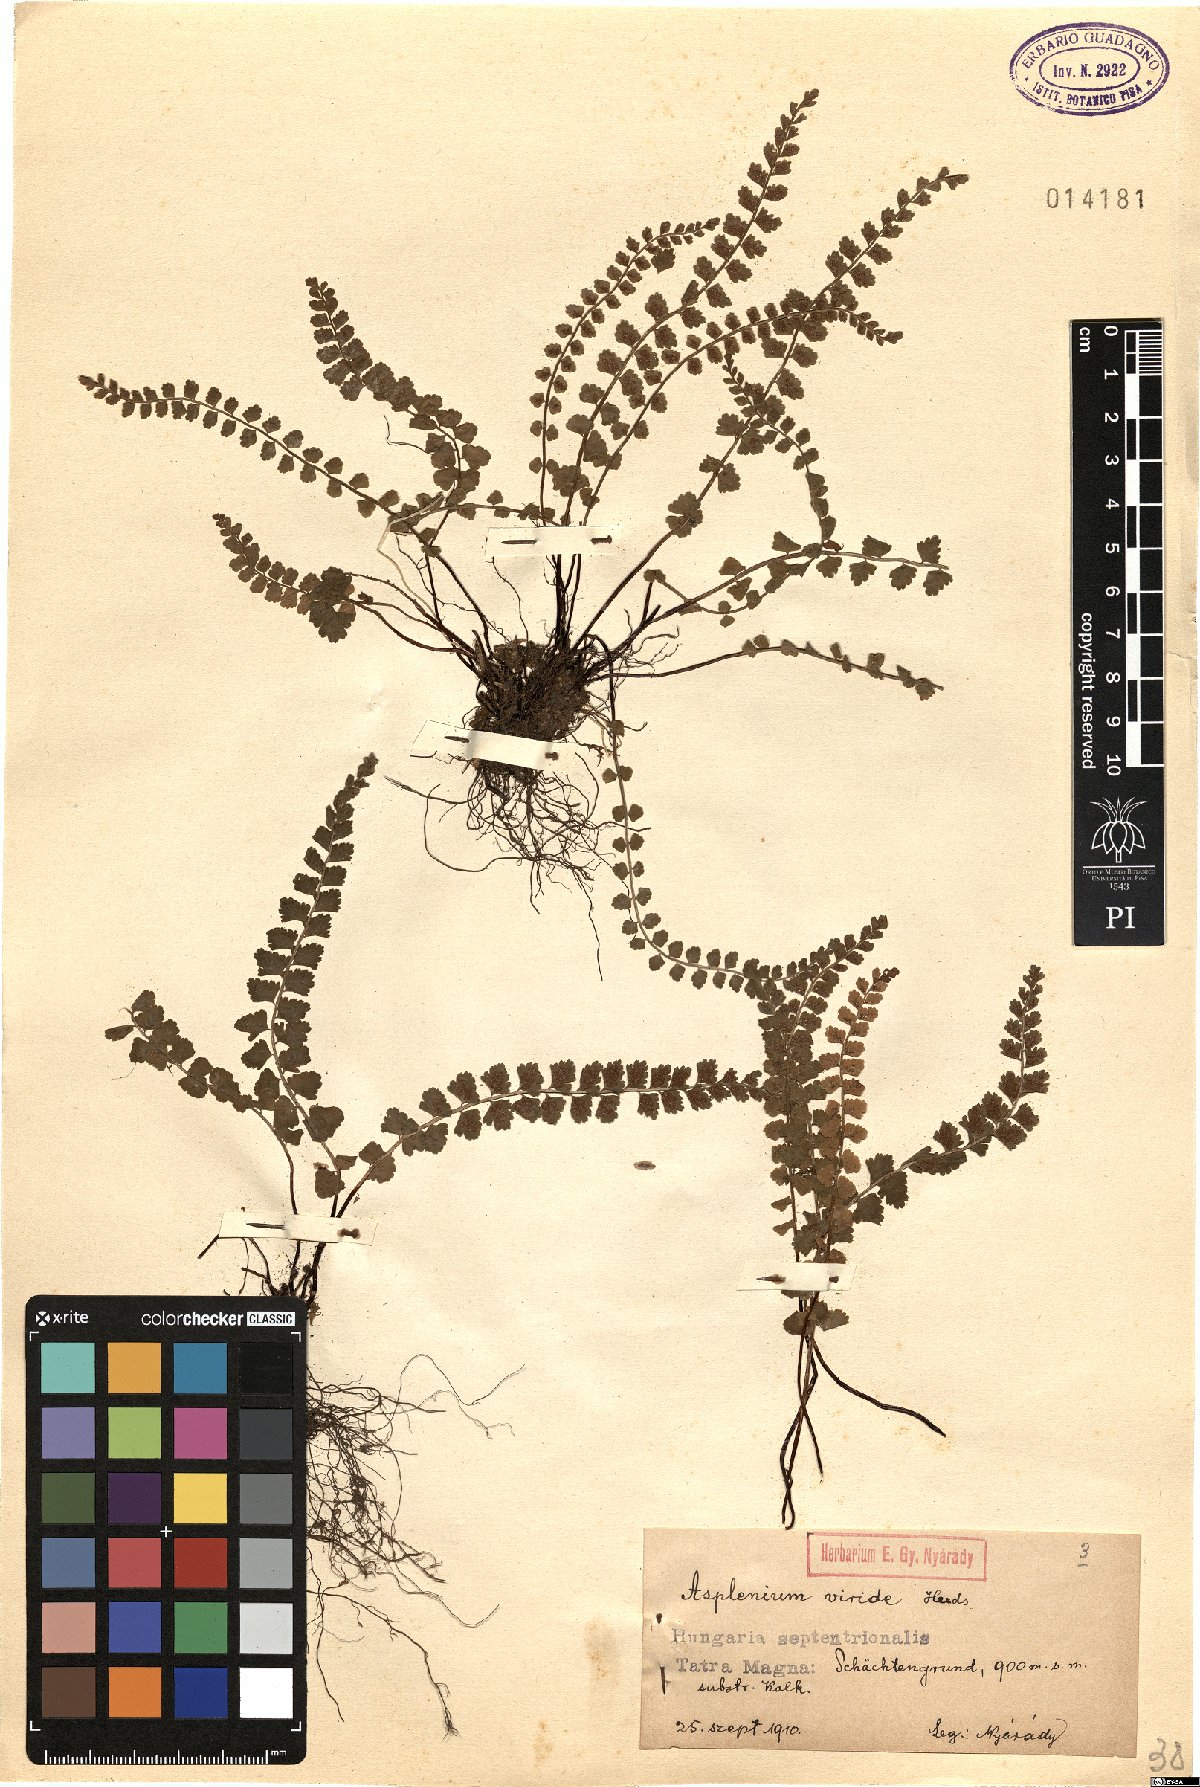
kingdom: Plantae
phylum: Tracheophyta
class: Polypodiopsida
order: Polypodiales
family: Aspleniaceae
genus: Asplenium
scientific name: Asplenium viride
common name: Green spleenwort
